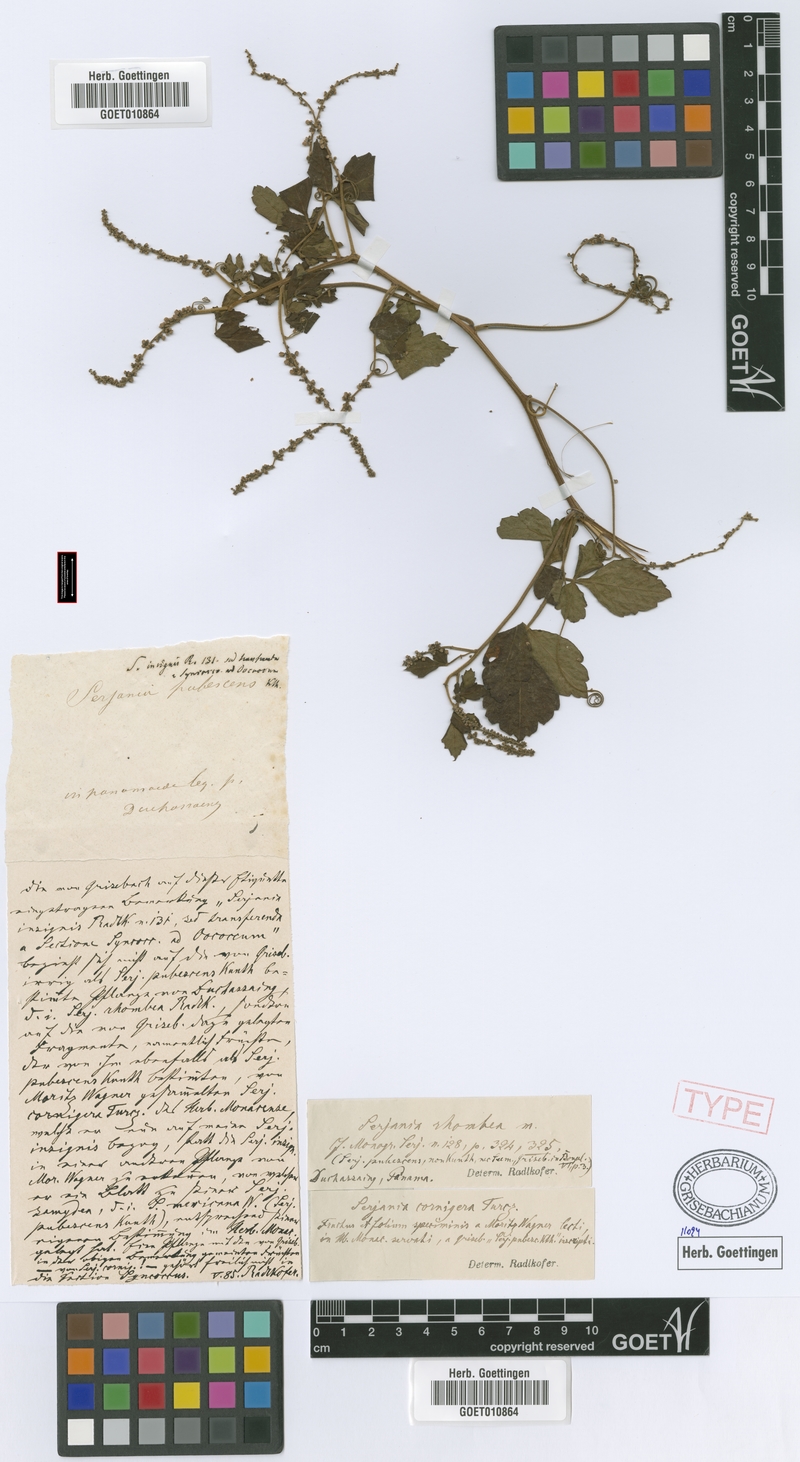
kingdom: Plantae
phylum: Tracheophyta
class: Magnoliopsida
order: Sapindales
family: Sapindaceae
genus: Serjania
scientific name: Serjania rhombea
